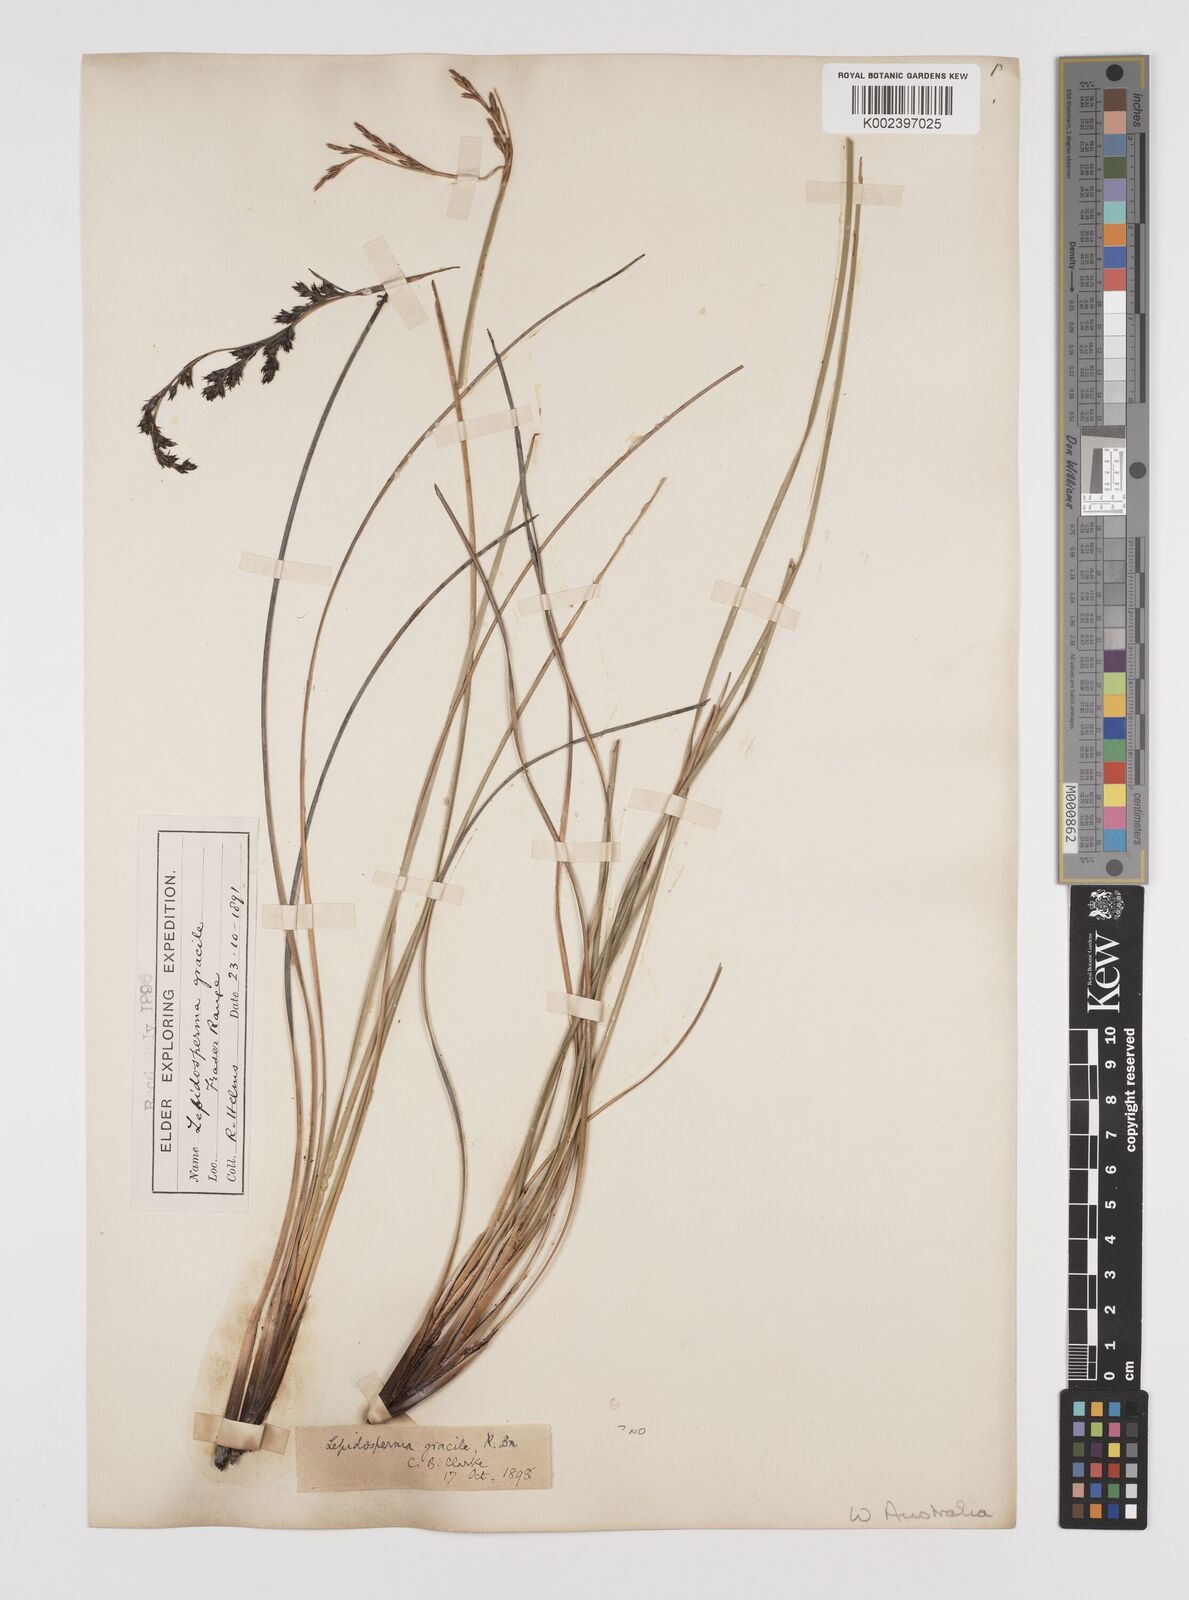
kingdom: Plantae
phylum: Tracheophyta
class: Liliopsida
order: Poales
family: Cyperaceae
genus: Lepidosperma
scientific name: Lepidosperma gracile
